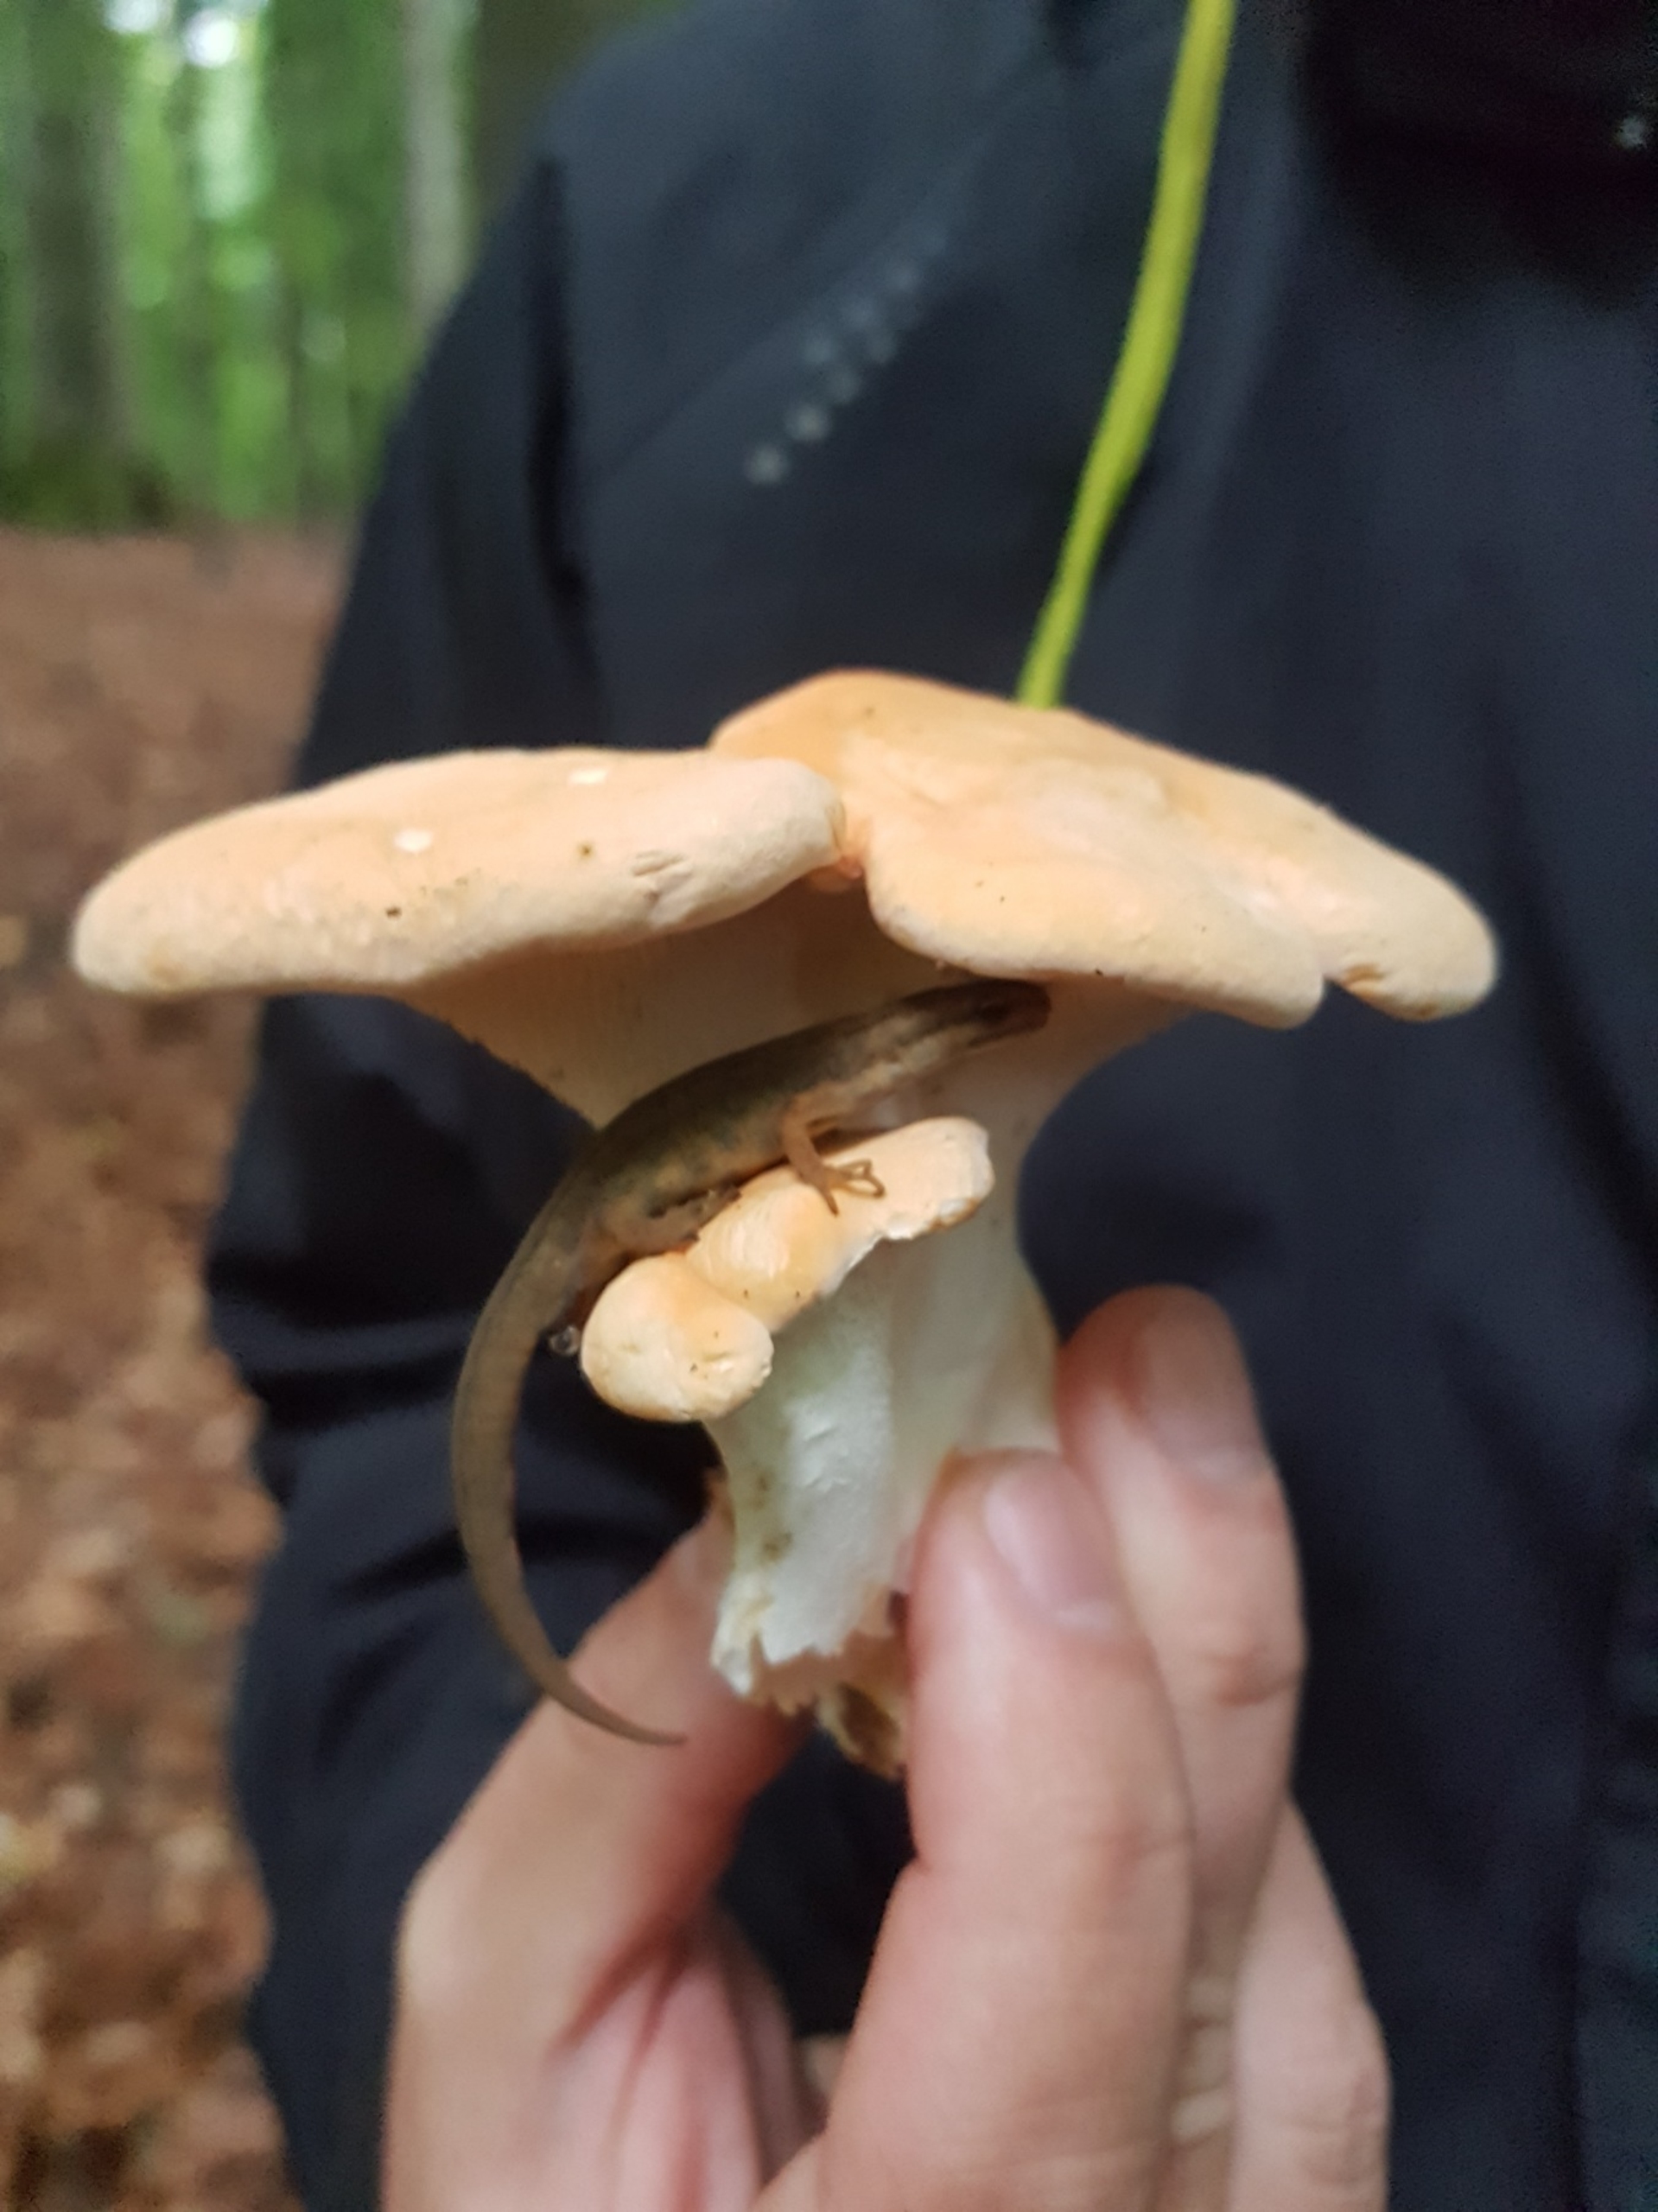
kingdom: Animalia
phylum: Chordata
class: Amphibia
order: Caudata
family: Salamandridae
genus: Lissotriton
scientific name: Lissotriton vulgaris
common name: Lille vandsalamander
